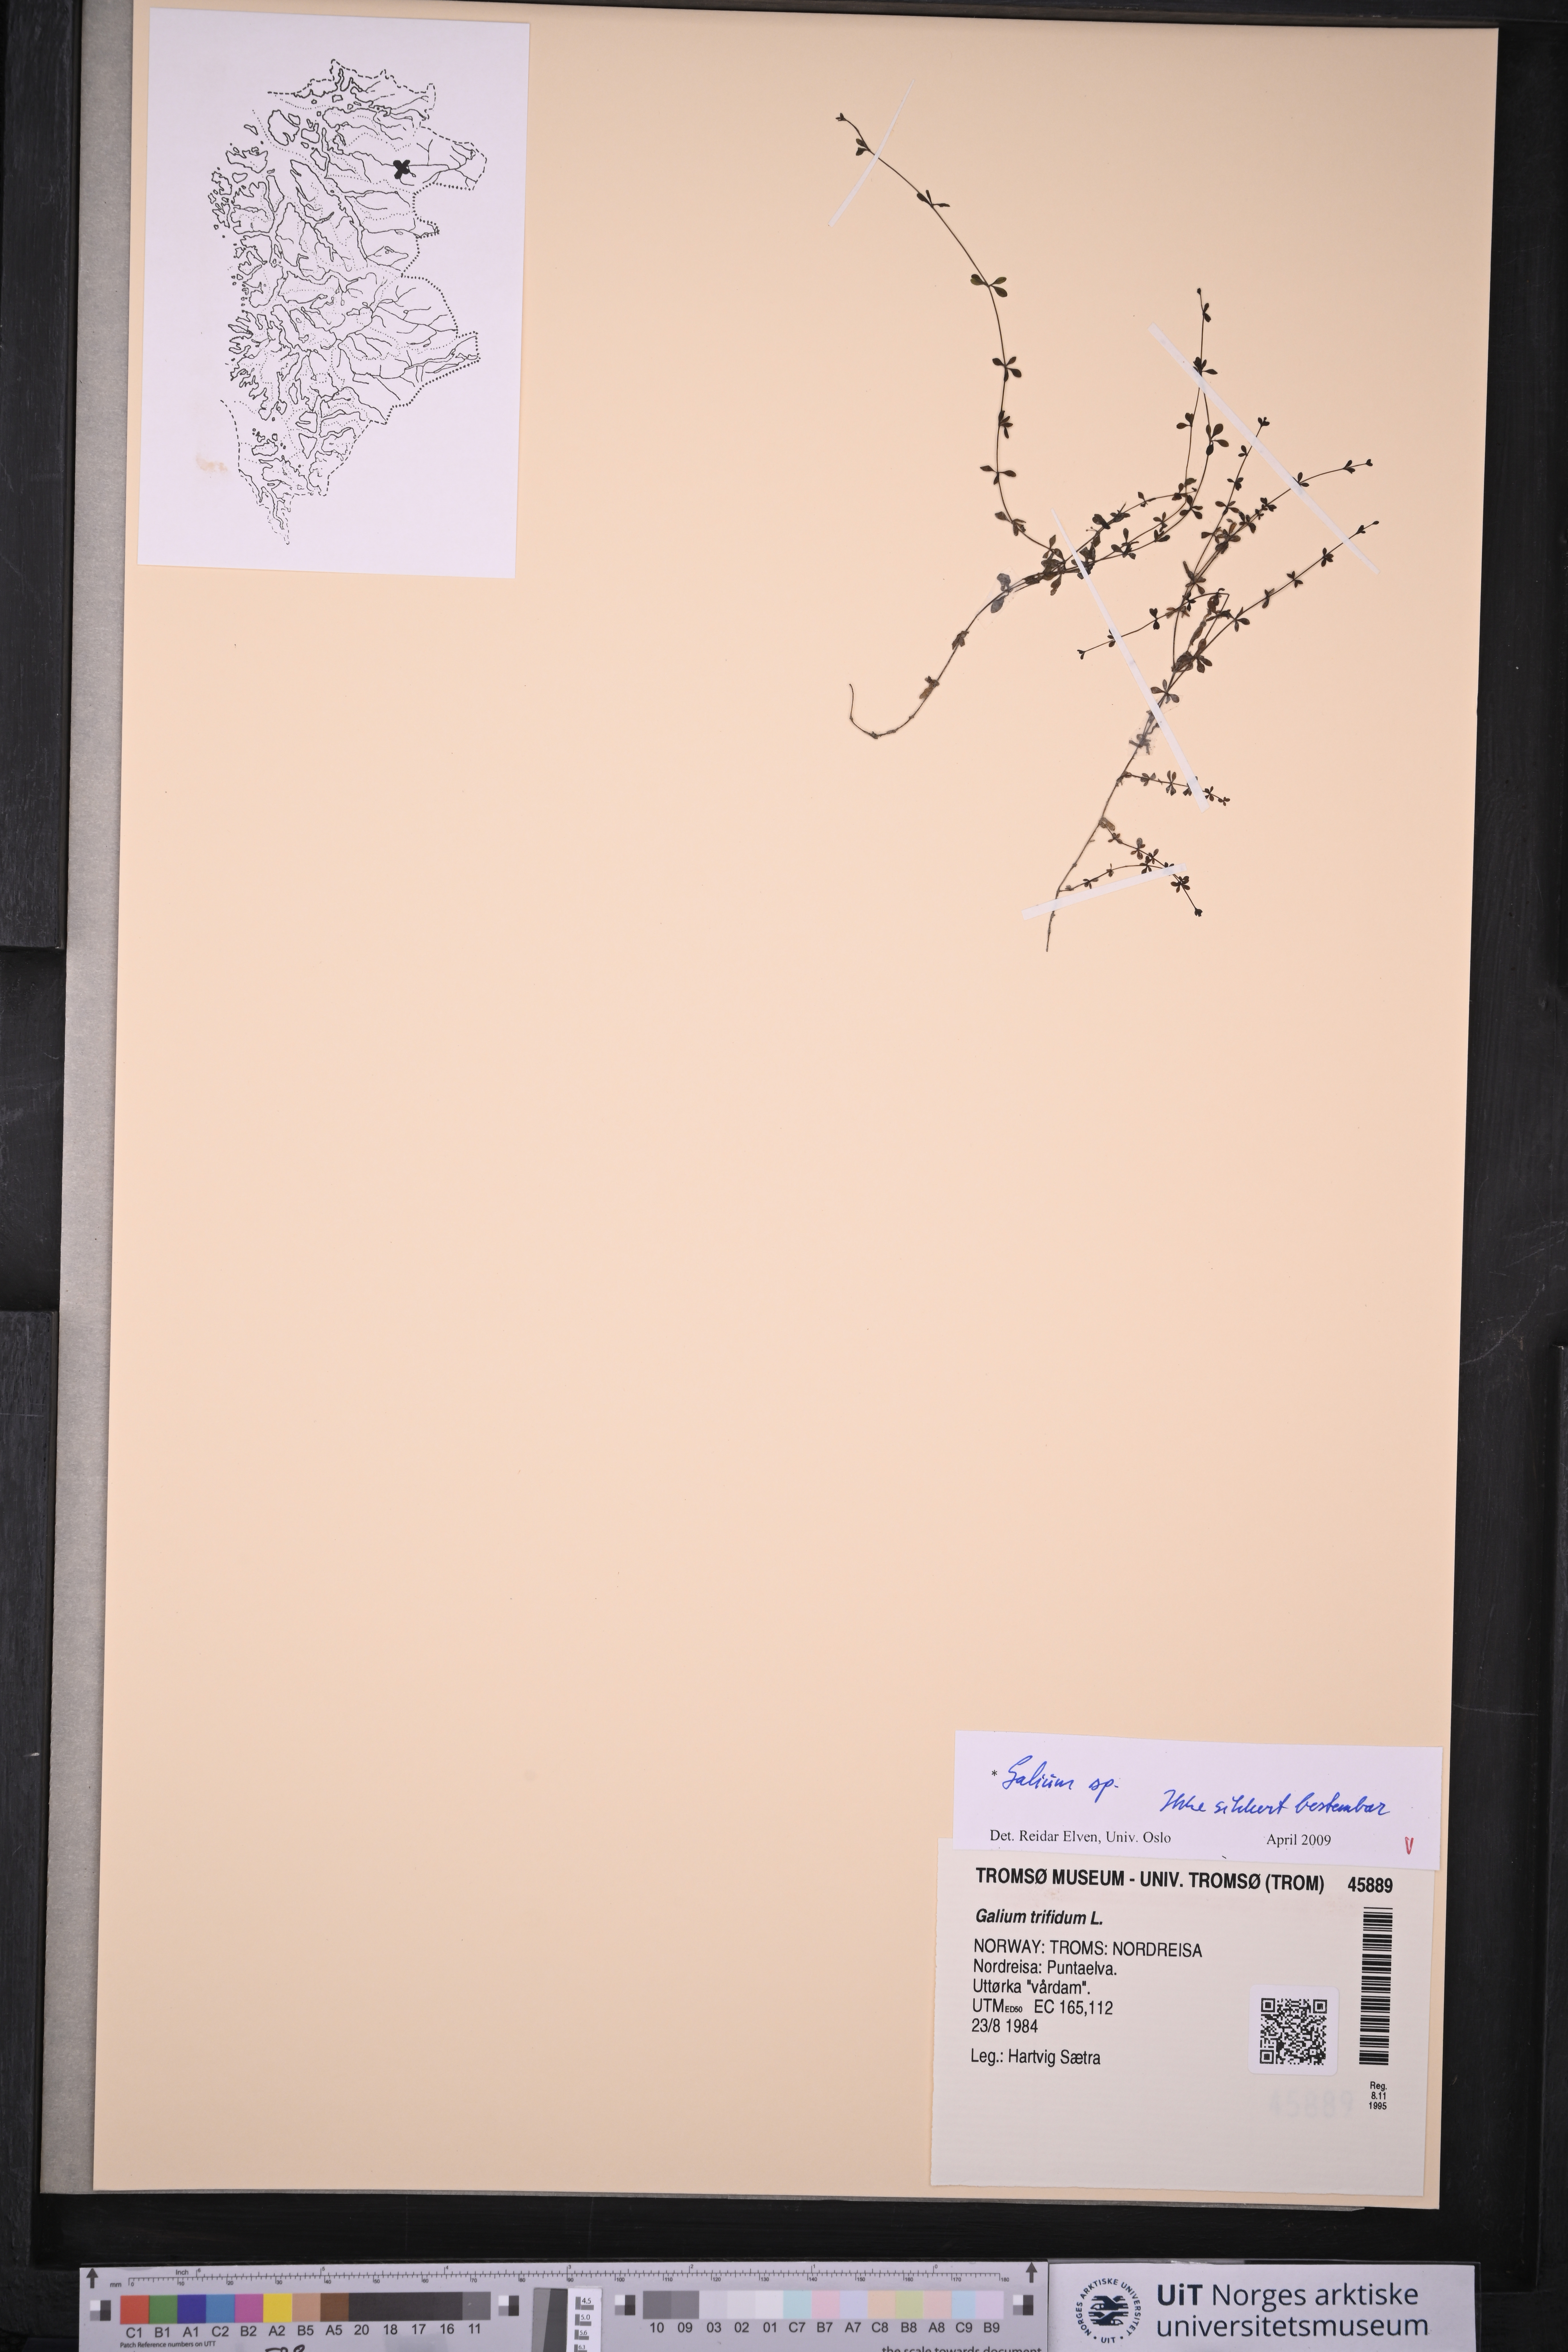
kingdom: Plantae
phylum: Tracheophyta
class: Magnoliopsida
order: Gentianales
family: Rubiaceae
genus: Galium
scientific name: Galium
